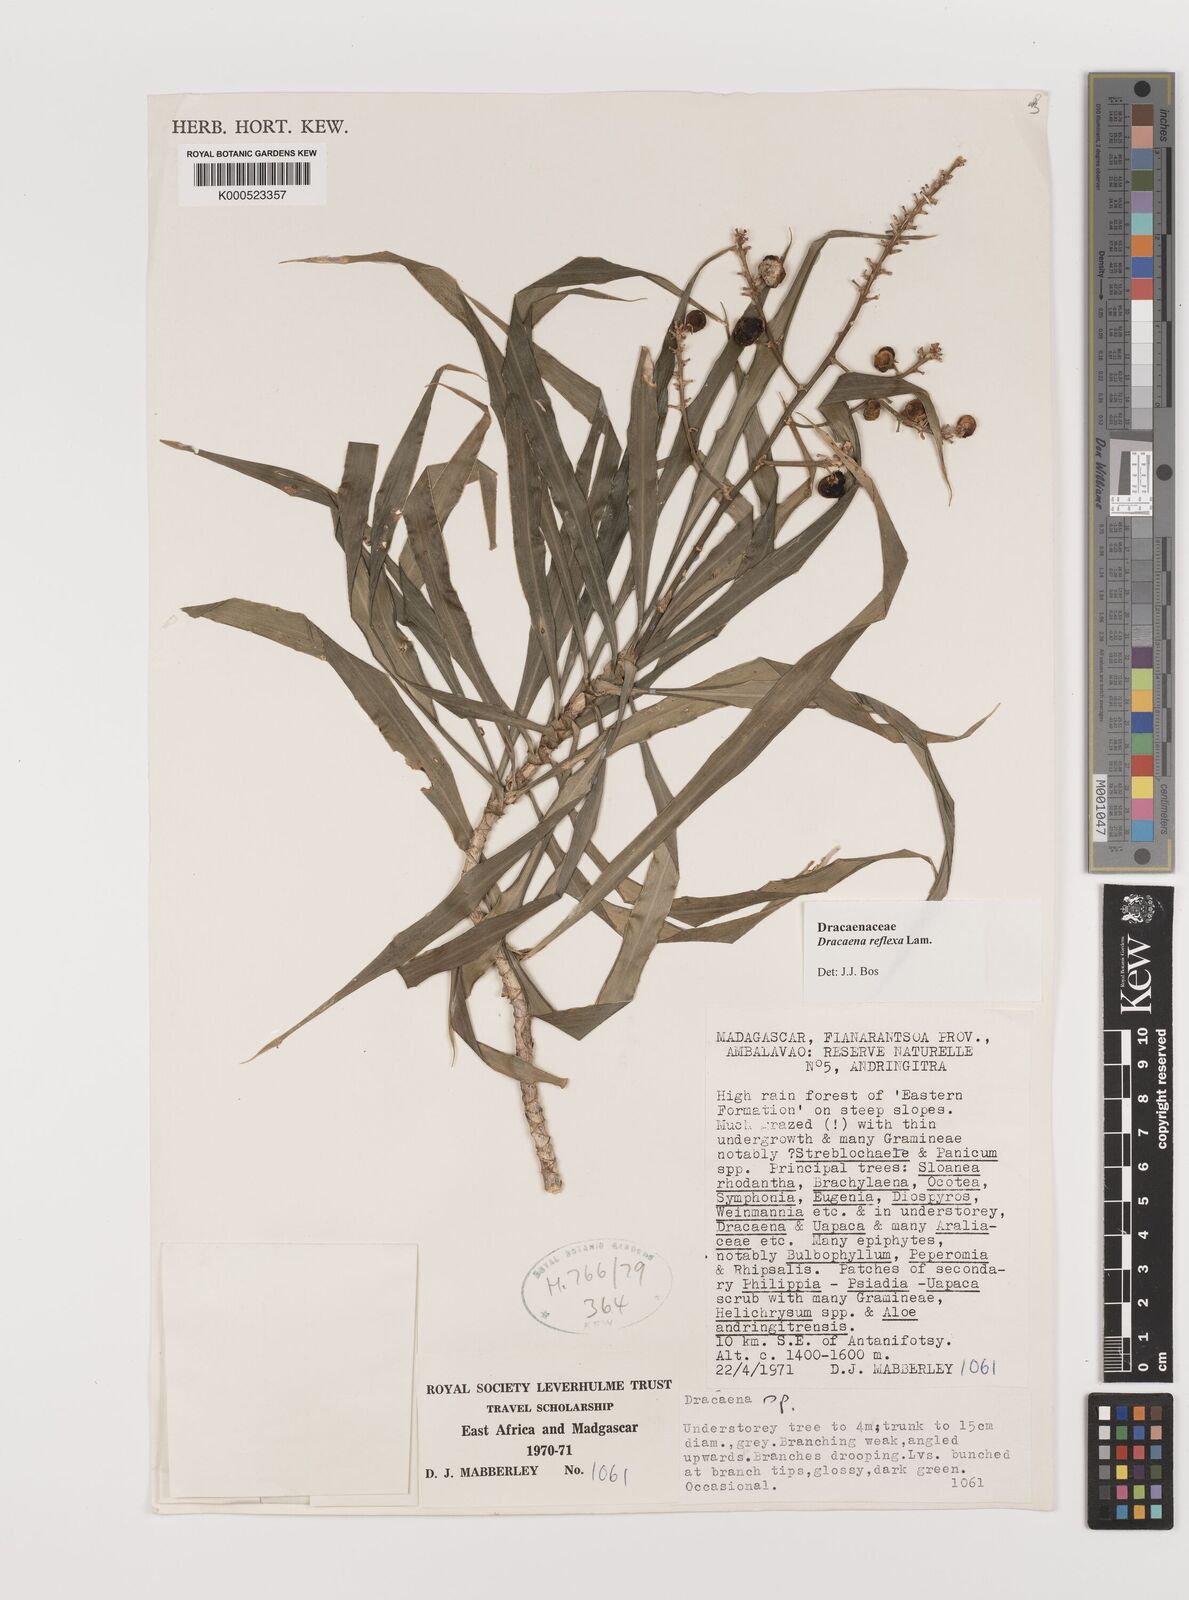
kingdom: Plantae
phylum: Tracheophyta
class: Liliopsida
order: Asparagales
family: Asparagaceae
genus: Dracaena
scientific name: Dracaena reflexa
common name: Song-of-india
